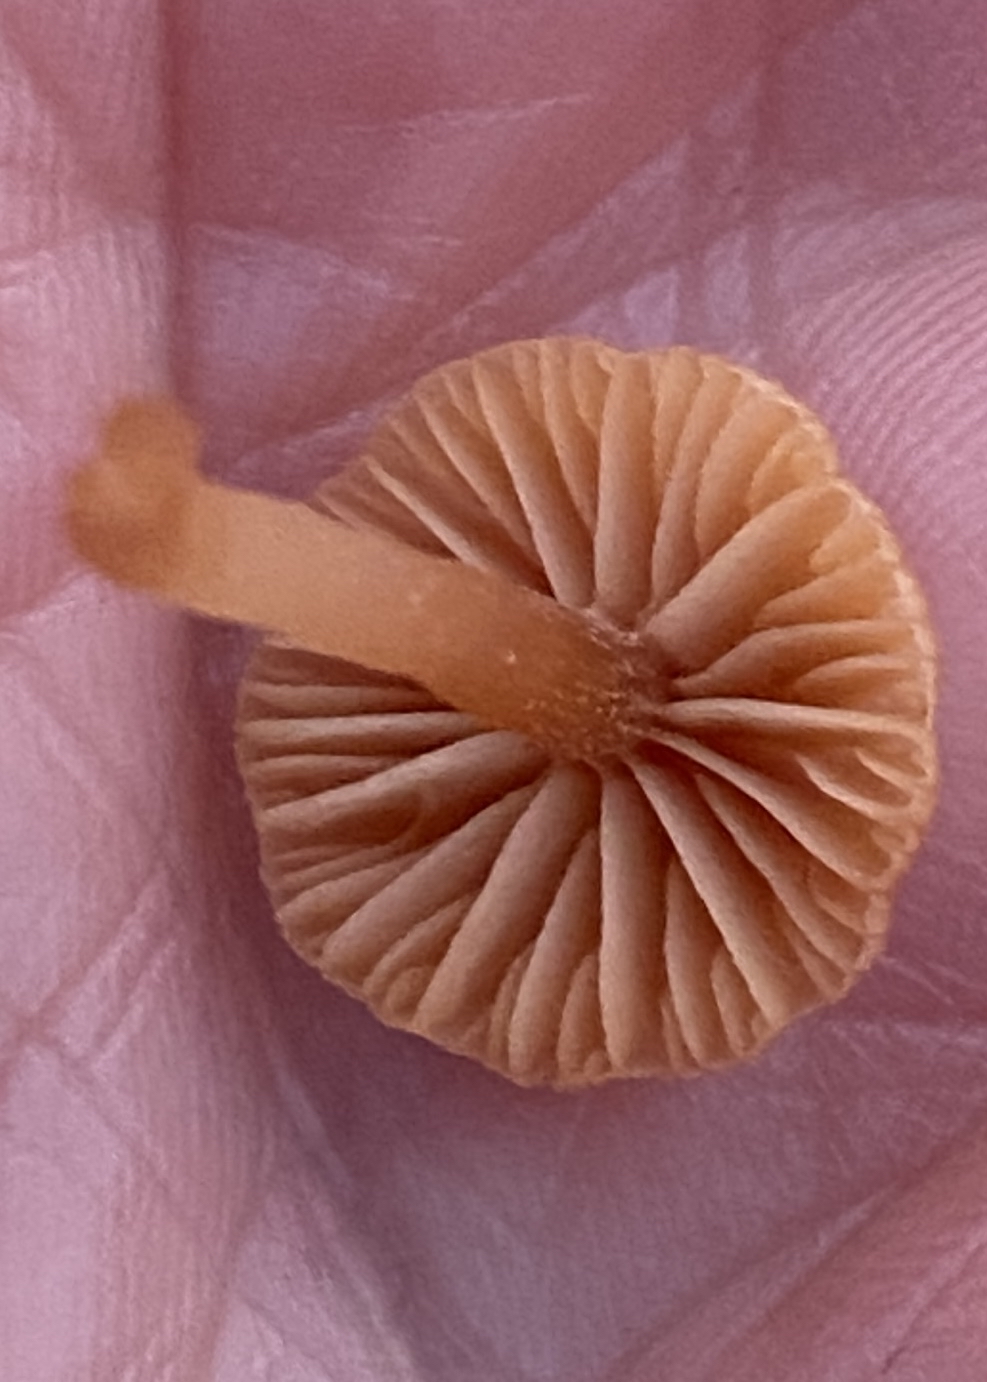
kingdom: Fungi
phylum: Basidiomycota
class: Agaricomycetes
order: Agaricales
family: Tubariaceae
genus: Tubaria
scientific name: Tubaria furfuracea
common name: kliddet fnughat
